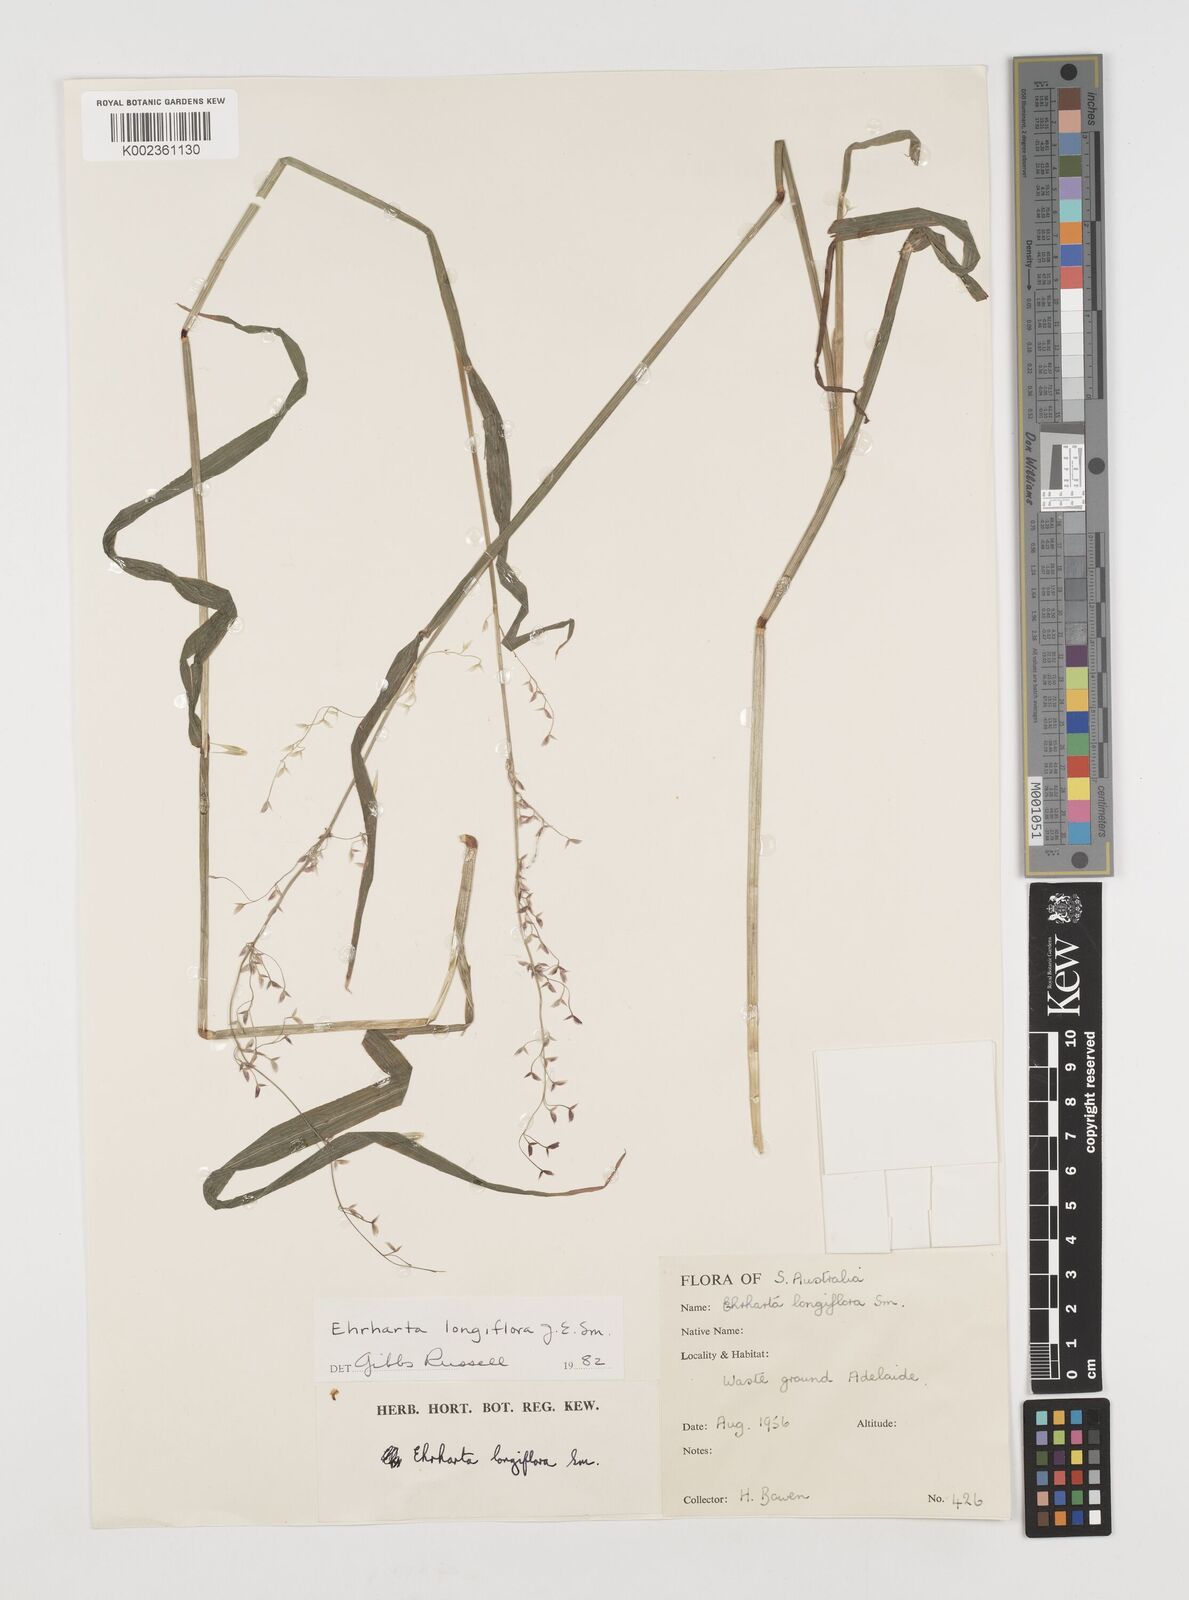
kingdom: Plantae
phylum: Tracheophyta
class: Liliopsida
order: Poales
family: Poaceae
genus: Ehrharta
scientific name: Ehrharta longiflora
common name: Longflowered veldtgrass
